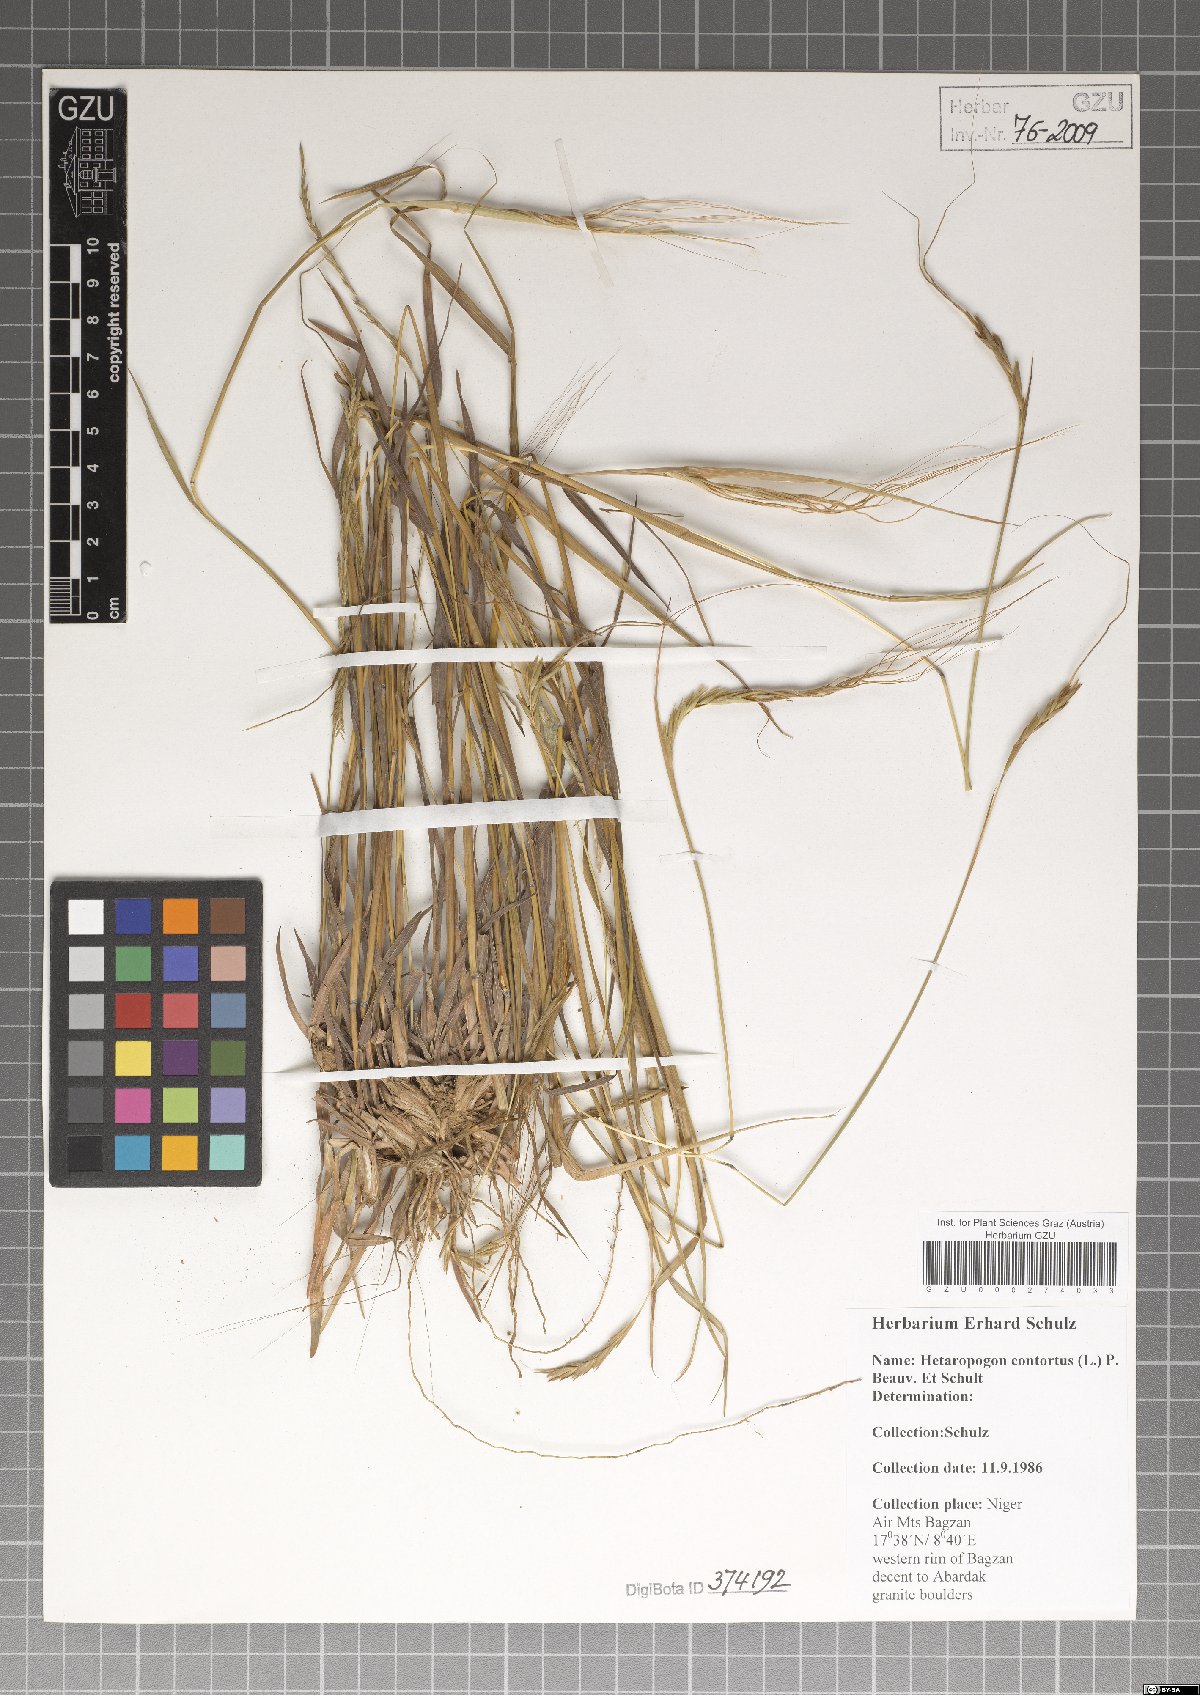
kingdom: Plantae
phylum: Tracheophyta
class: Liliopsida
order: Poales
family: Poaceae
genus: Heteropogon
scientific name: Heteropogon contortus
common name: Tanglehead
